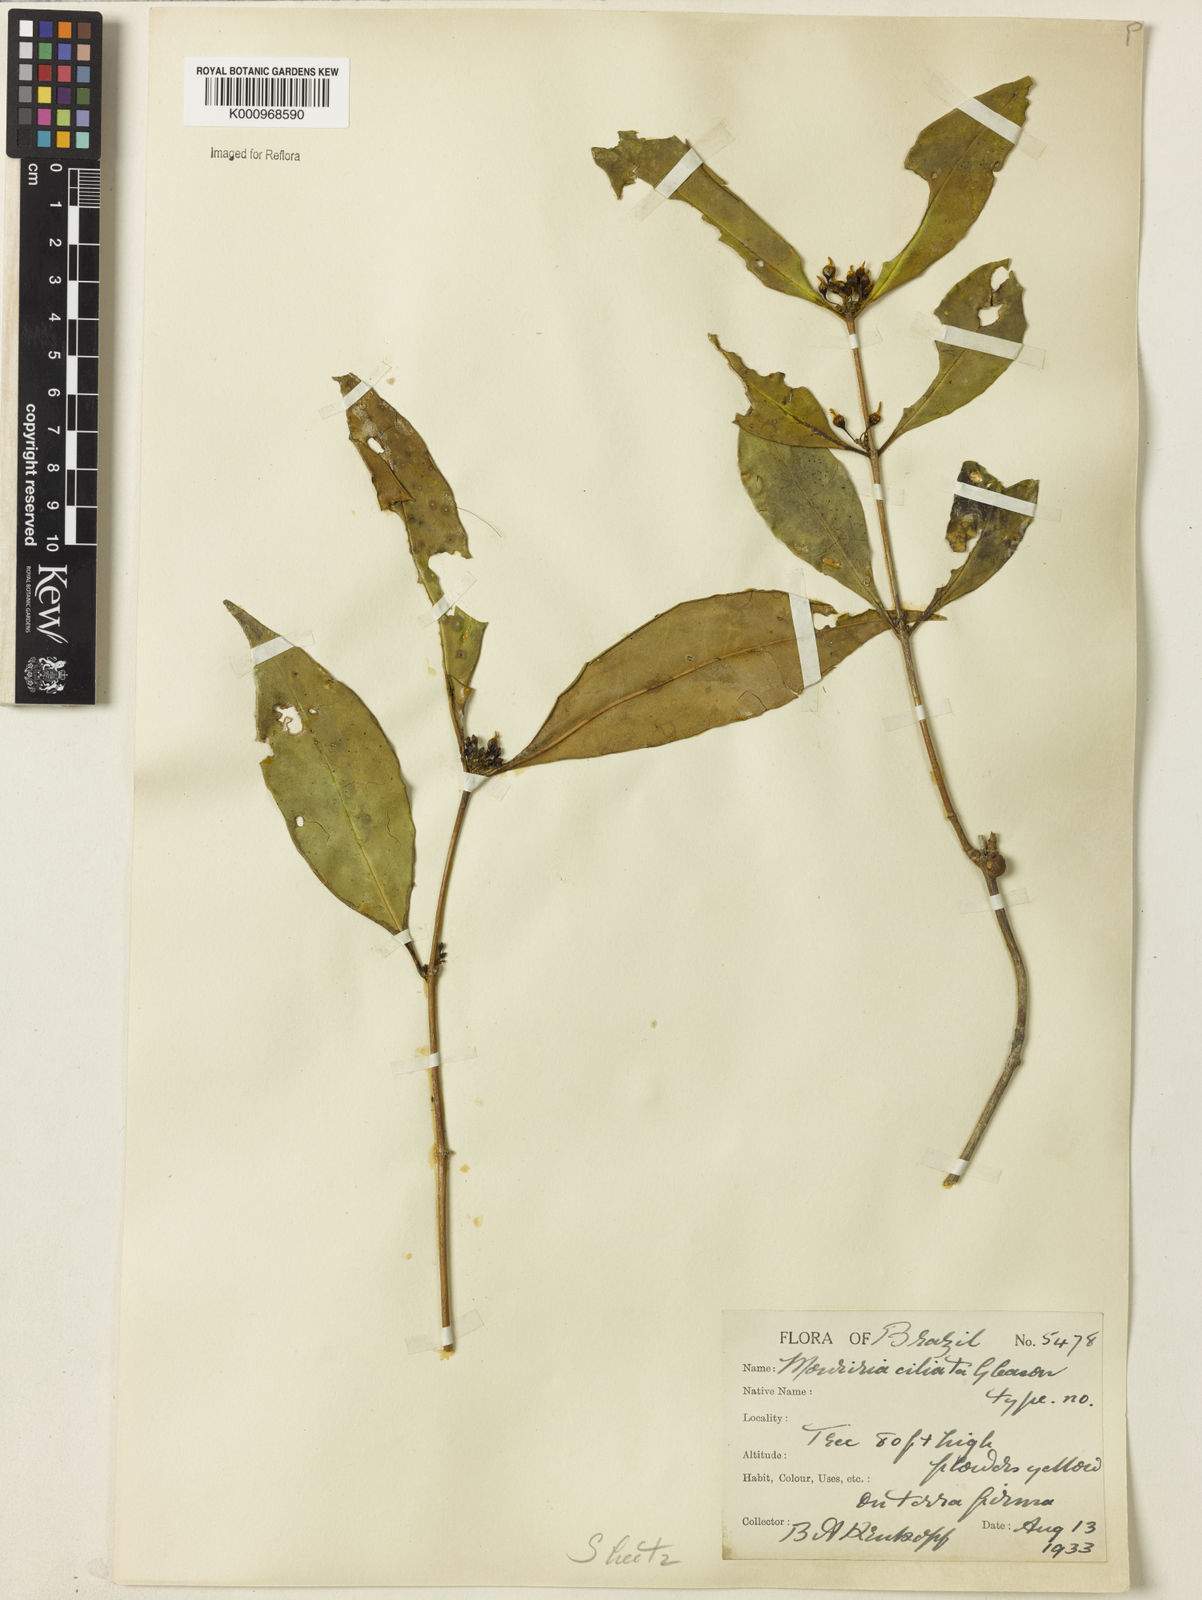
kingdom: Plantae
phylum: Tracheophyta
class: Magnoliopsida
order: Myrtales
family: Melastomataceae
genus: Mouriri
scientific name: Mouriri acutiflora
